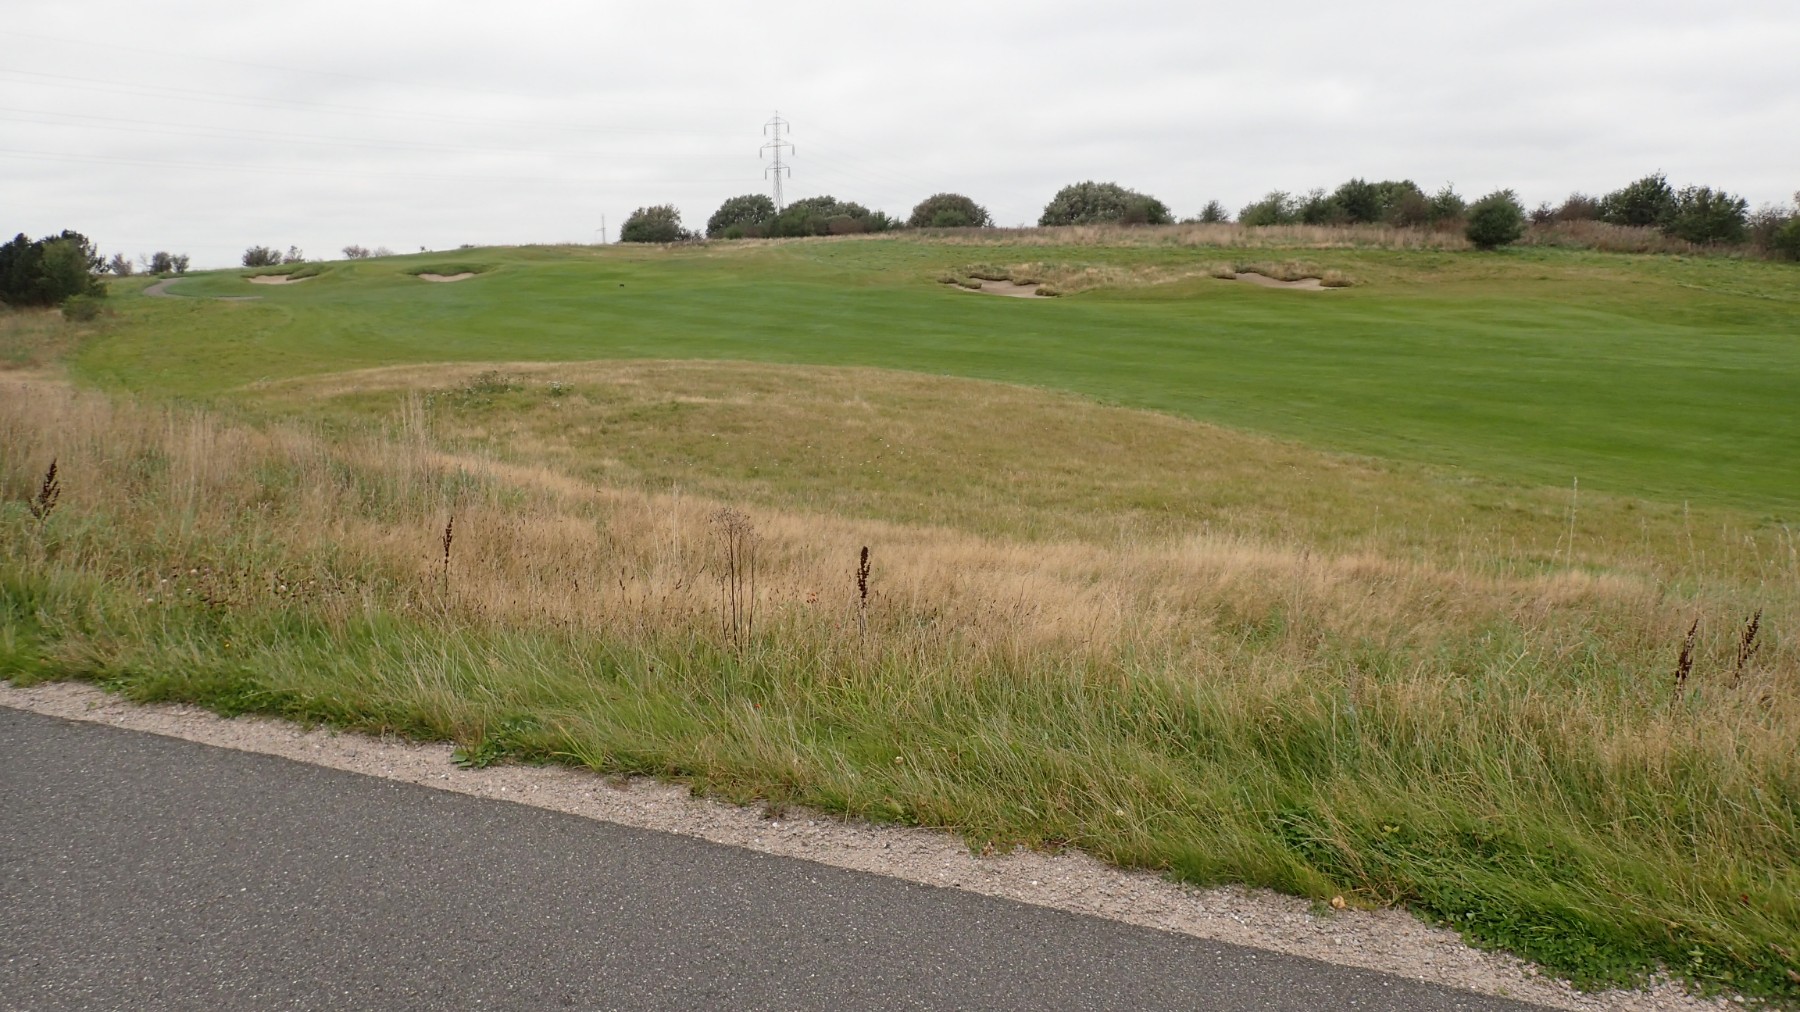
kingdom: Fungi
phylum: Basidiomycota
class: Agaricomycetes
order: Agaricales
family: Hygrophoraceae
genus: Hygrocybe
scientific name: Hygrocybe conica
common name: kegle-vokshat
